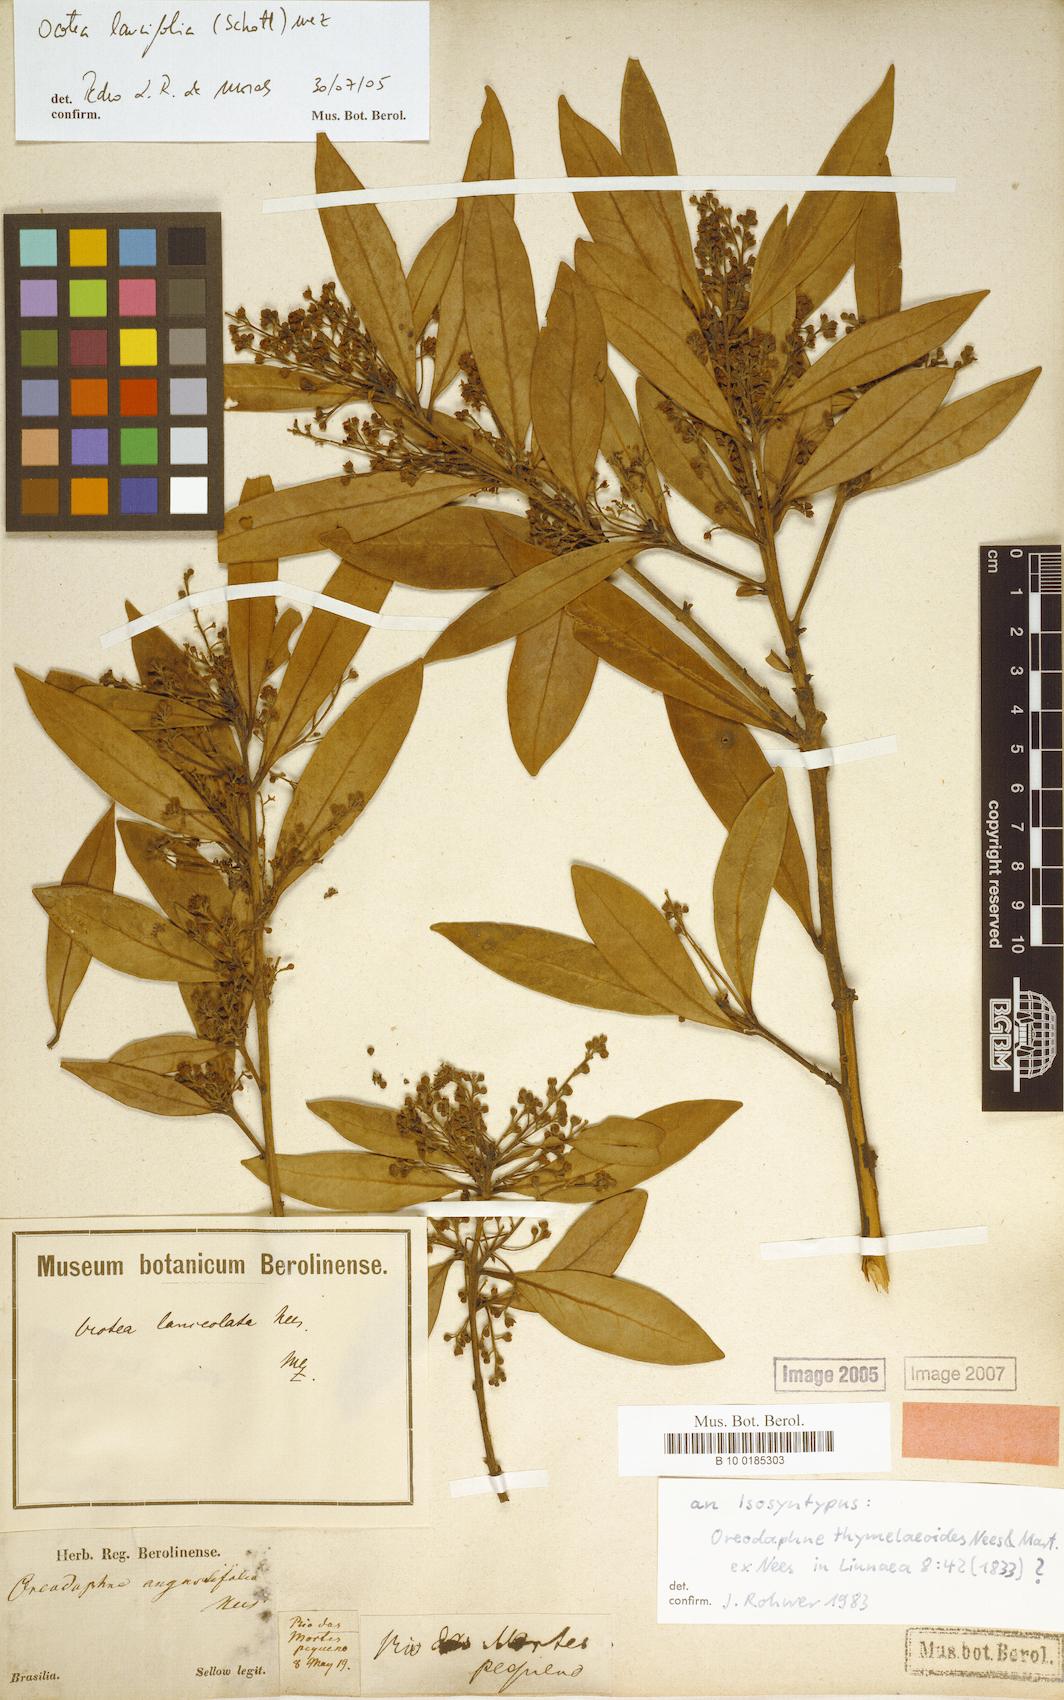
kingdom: Plantae
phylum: Tracheophyta
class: Magnoliopsida
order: Laurales
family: Lauraceae
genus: Ocotea
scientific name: Ocotea lancifolia
